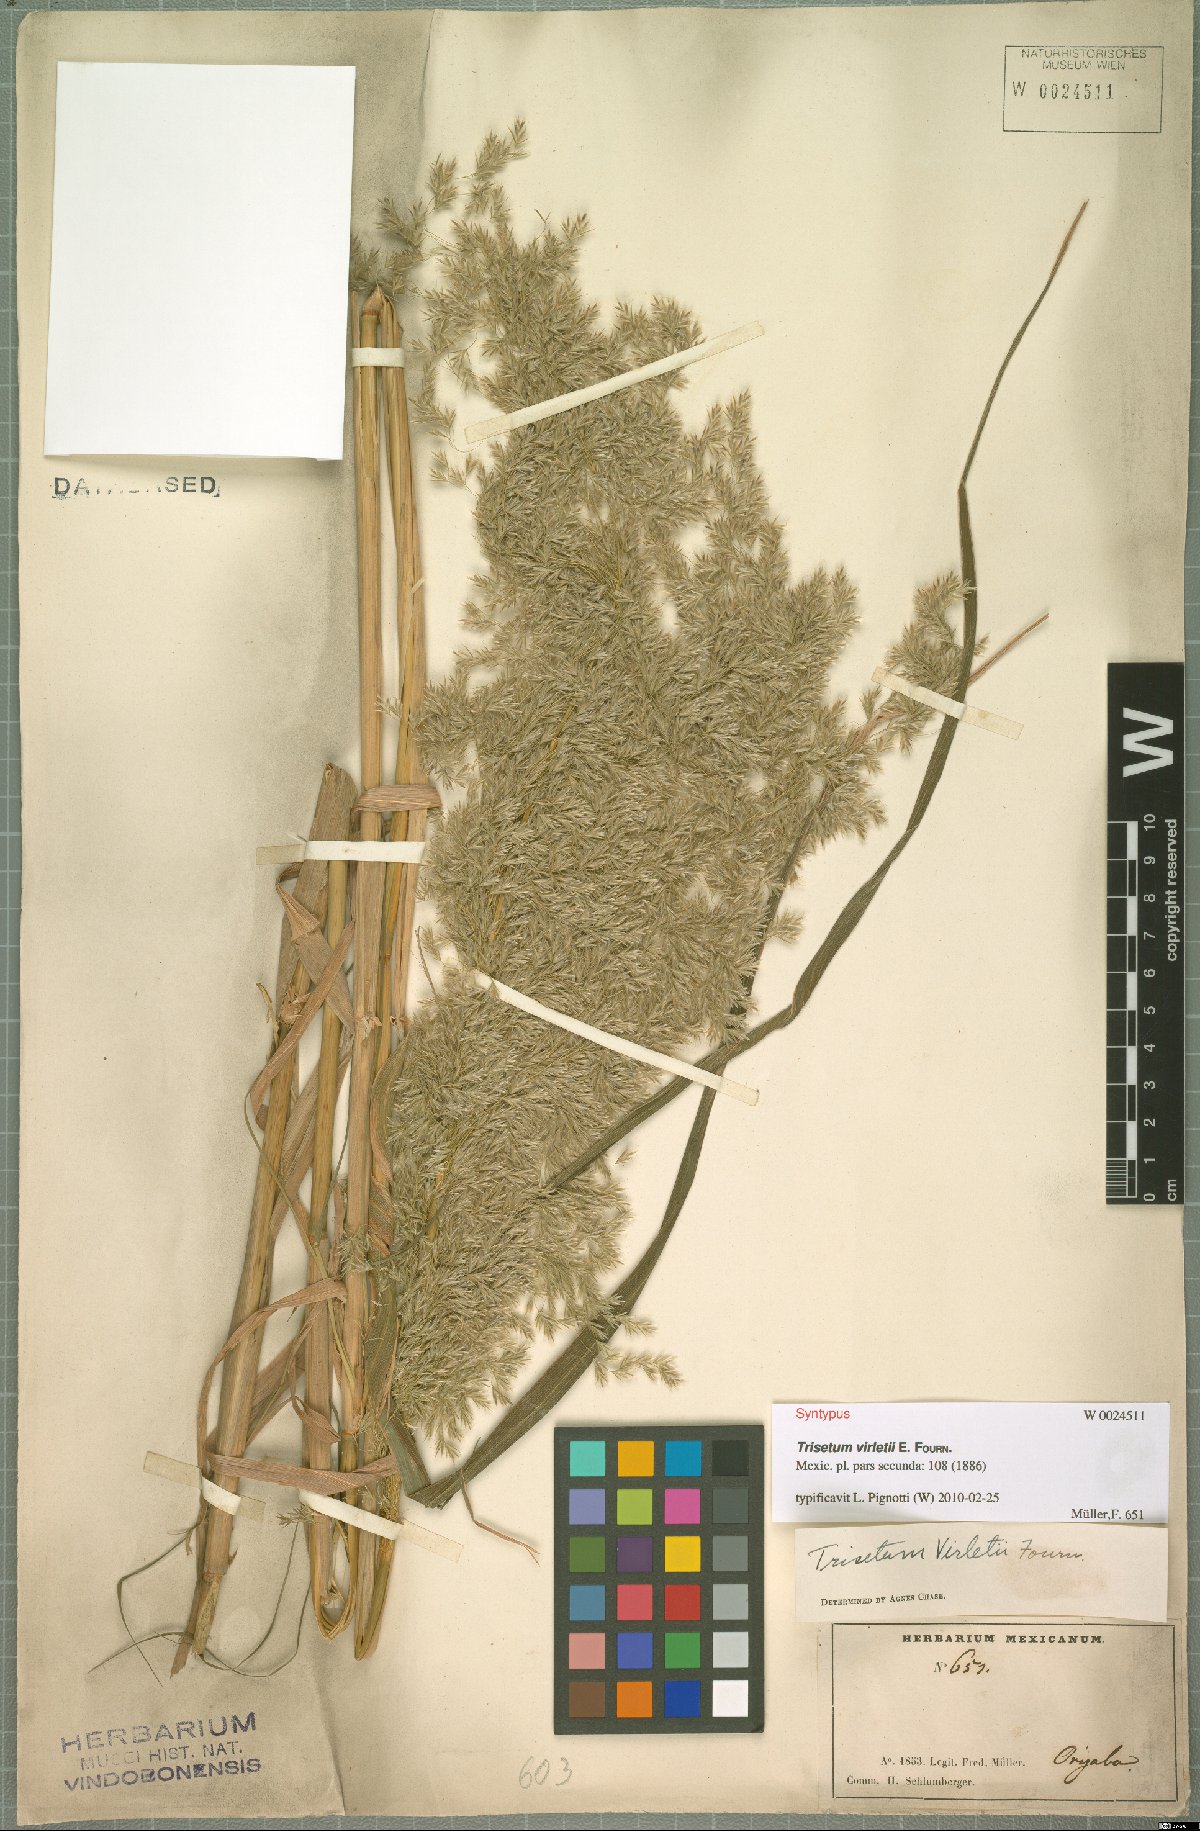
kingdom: Plantae
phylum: Tracheophyta
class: Liliopsida
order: Poales
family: Poaceae
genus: Peyritschia
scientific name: Peyritschia virletii
